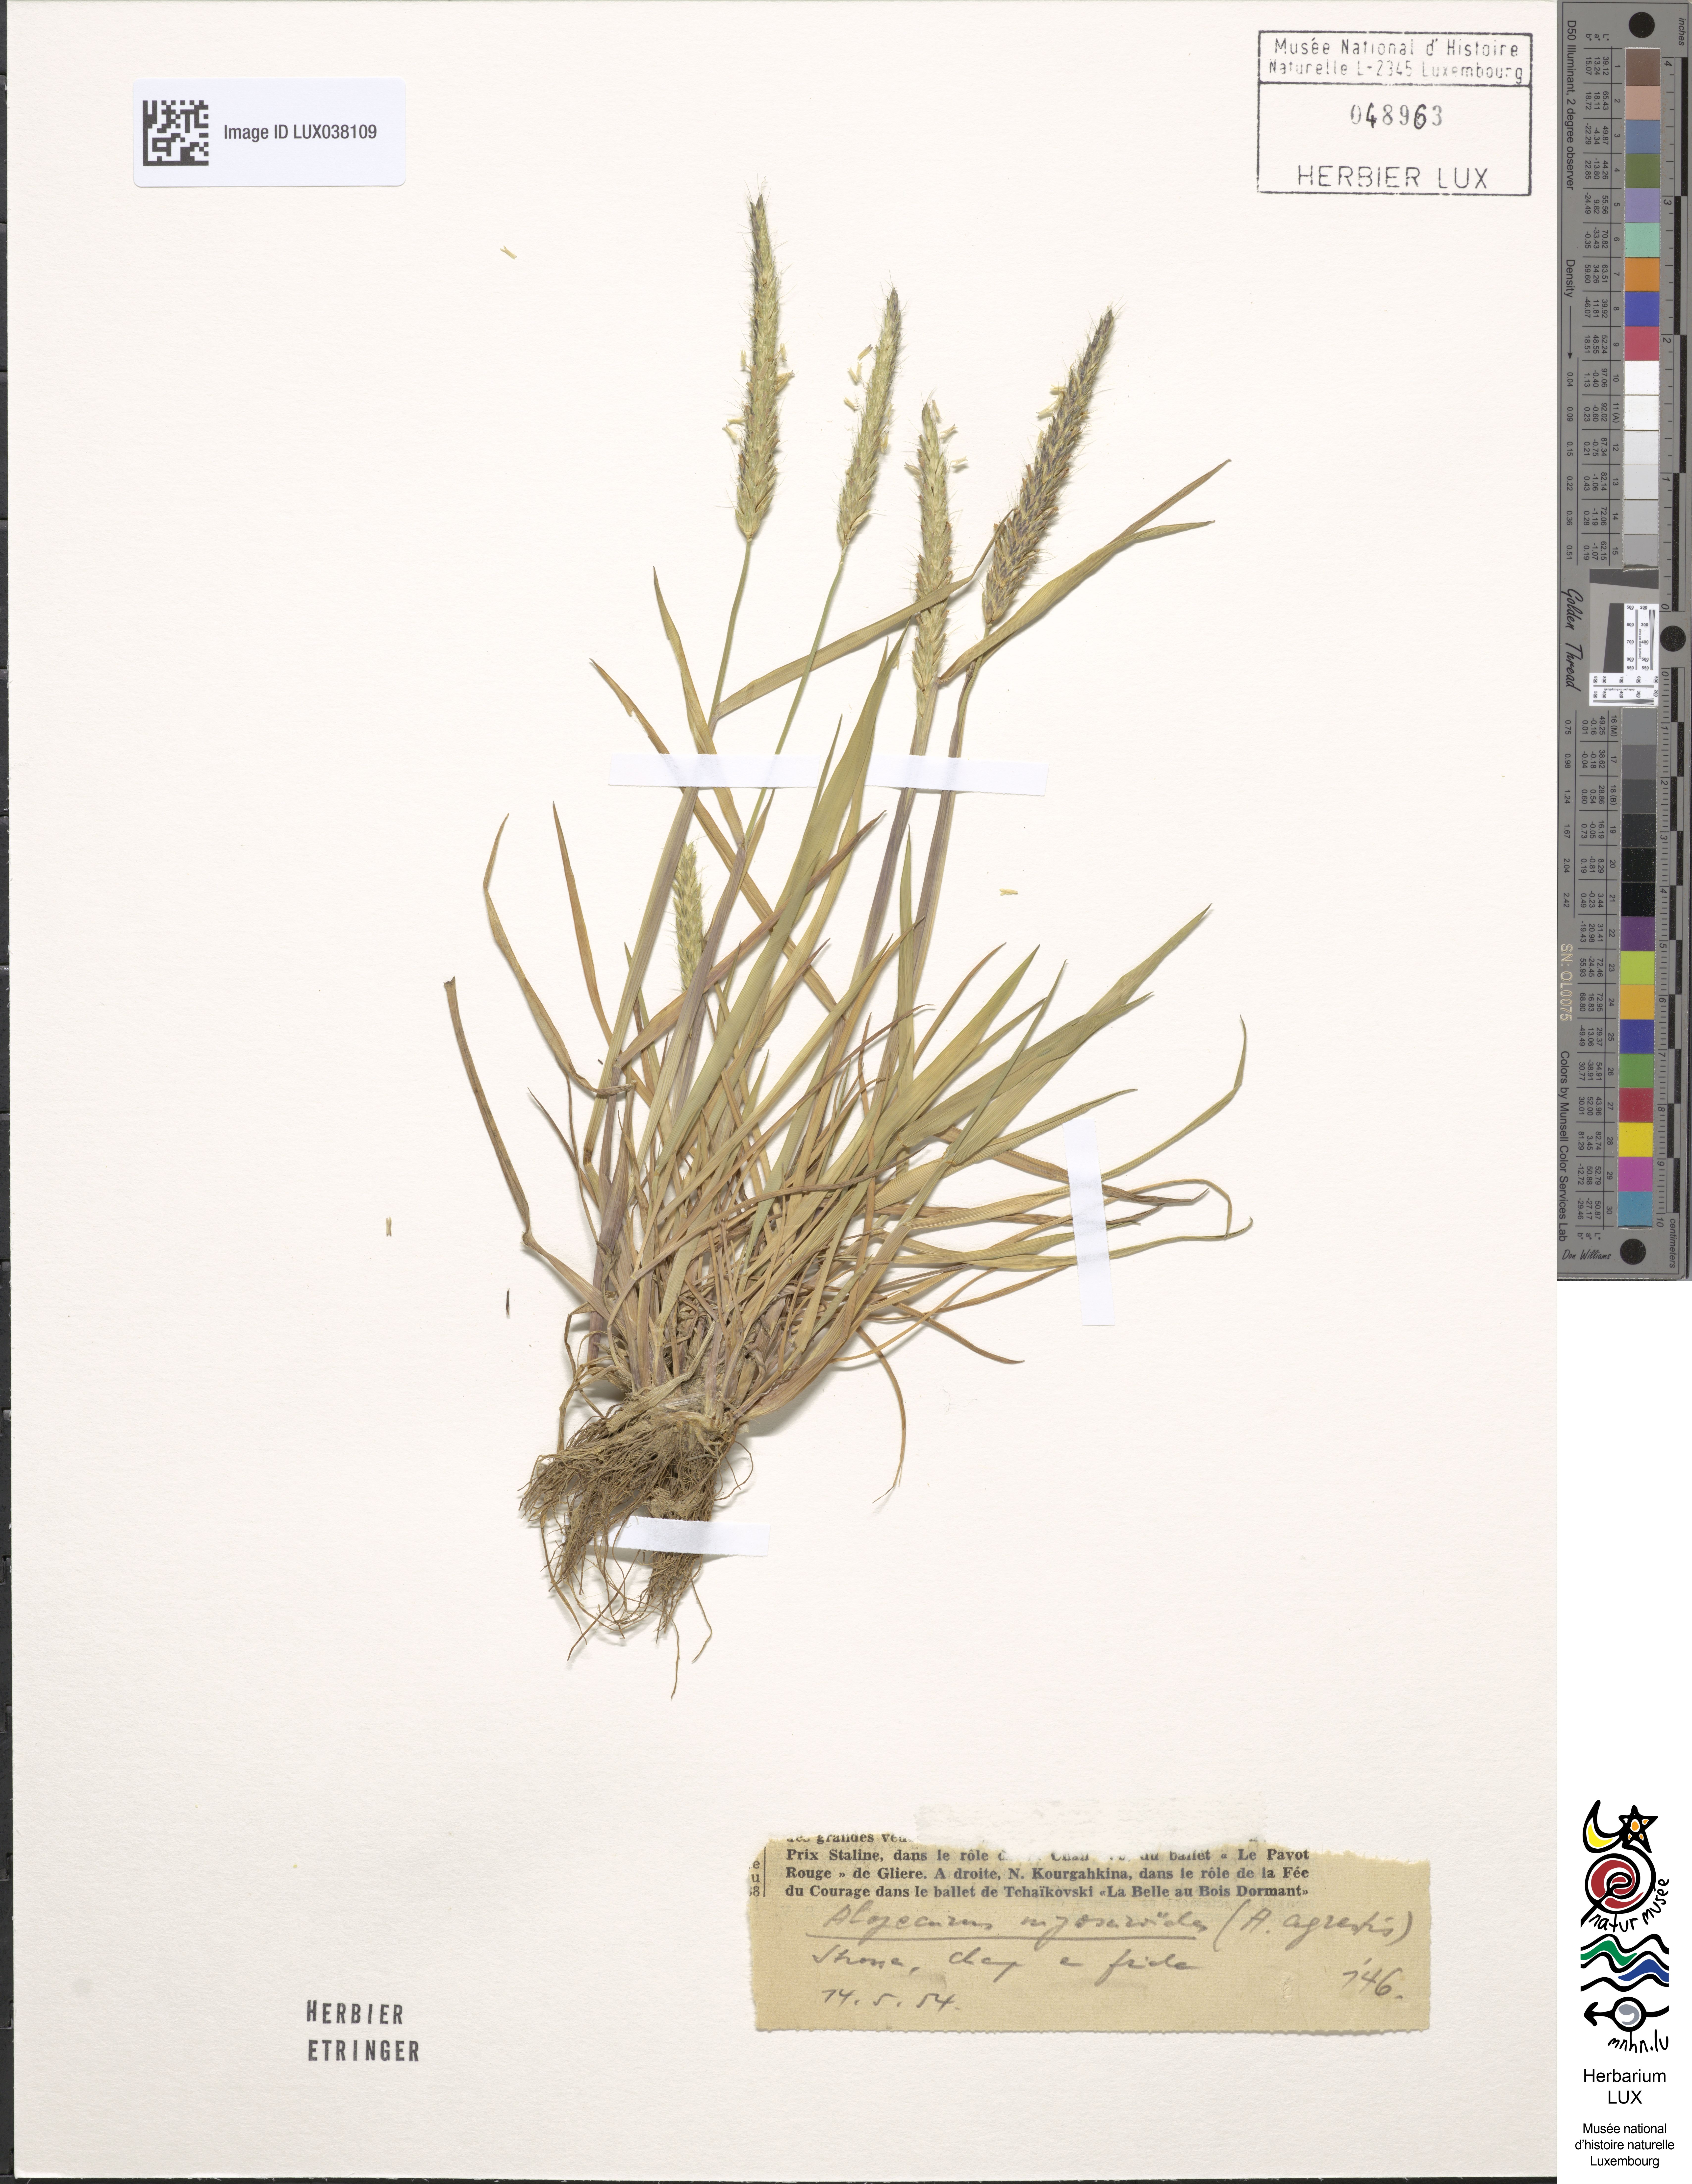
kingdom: Plantae
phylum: Tracheophyta
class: Liliopsida
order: Poales
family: Poaceae
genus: Alopecurus
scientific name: Alopecurus myosuroides
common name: Black-grass
